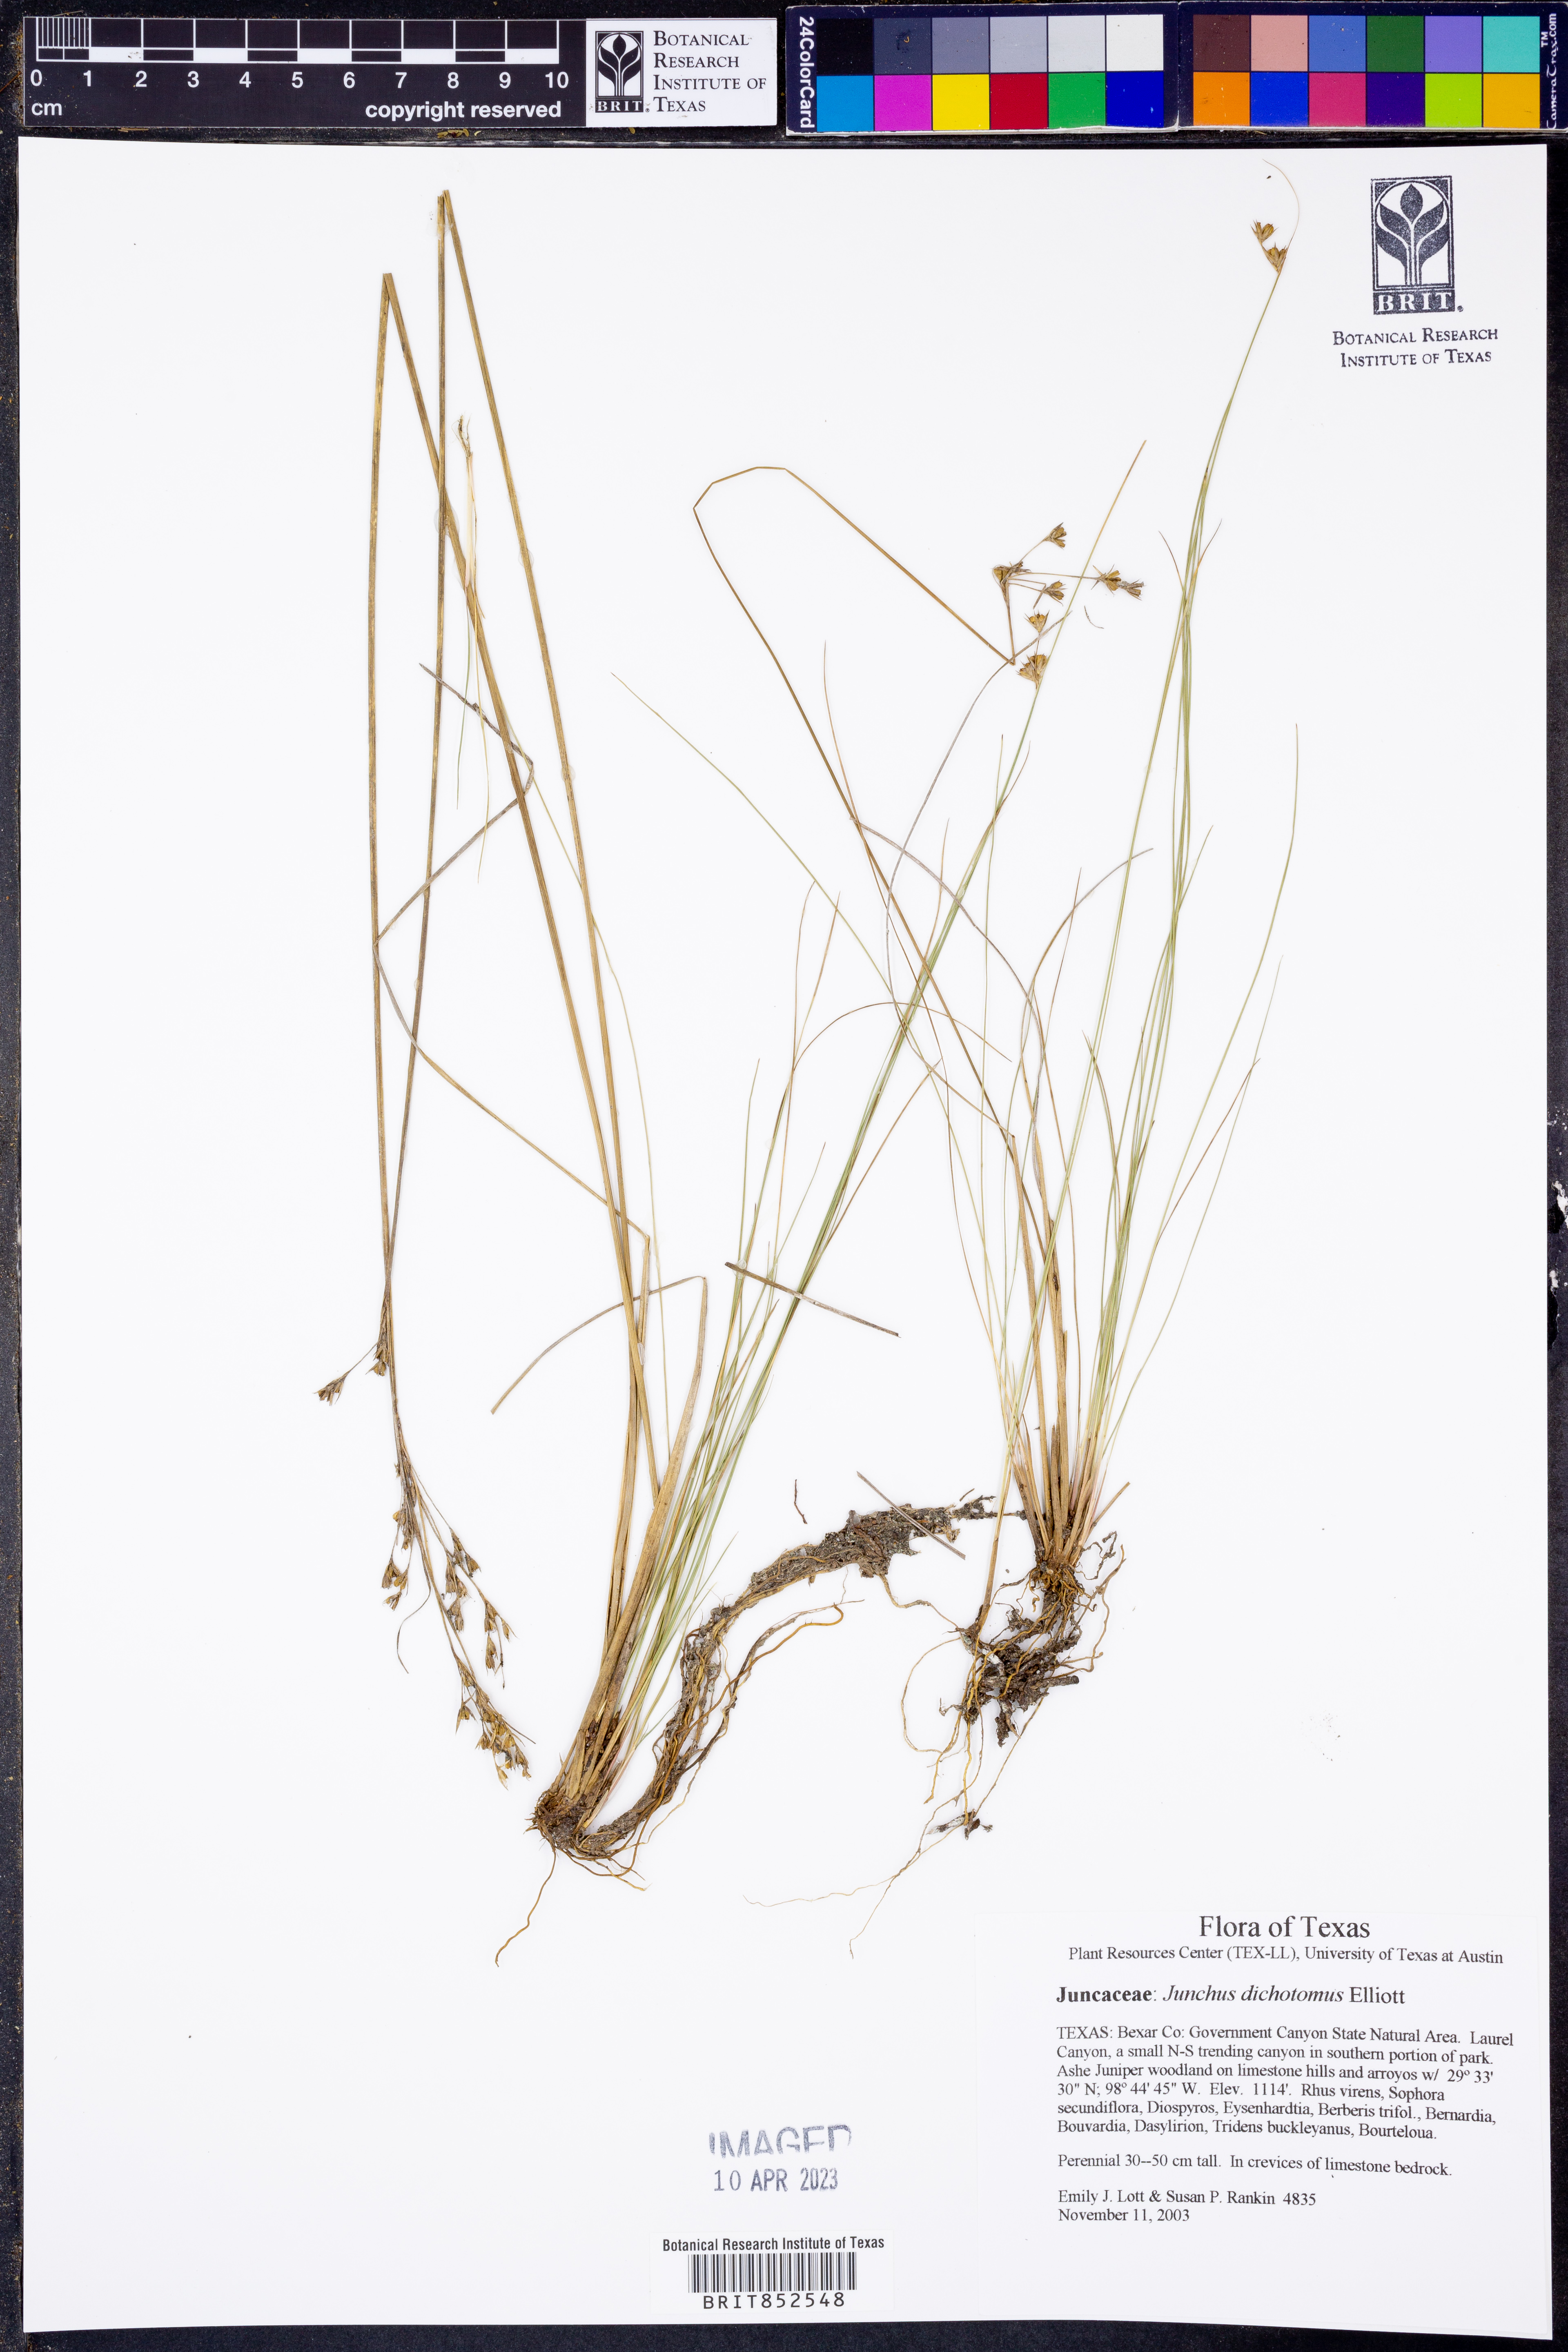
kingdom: Plantae
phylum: Tracheophyta
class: Liliopsida
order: Poales
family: Juncaceae
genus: Juncus
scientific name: Juncus dichotomus
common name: Forked rush
